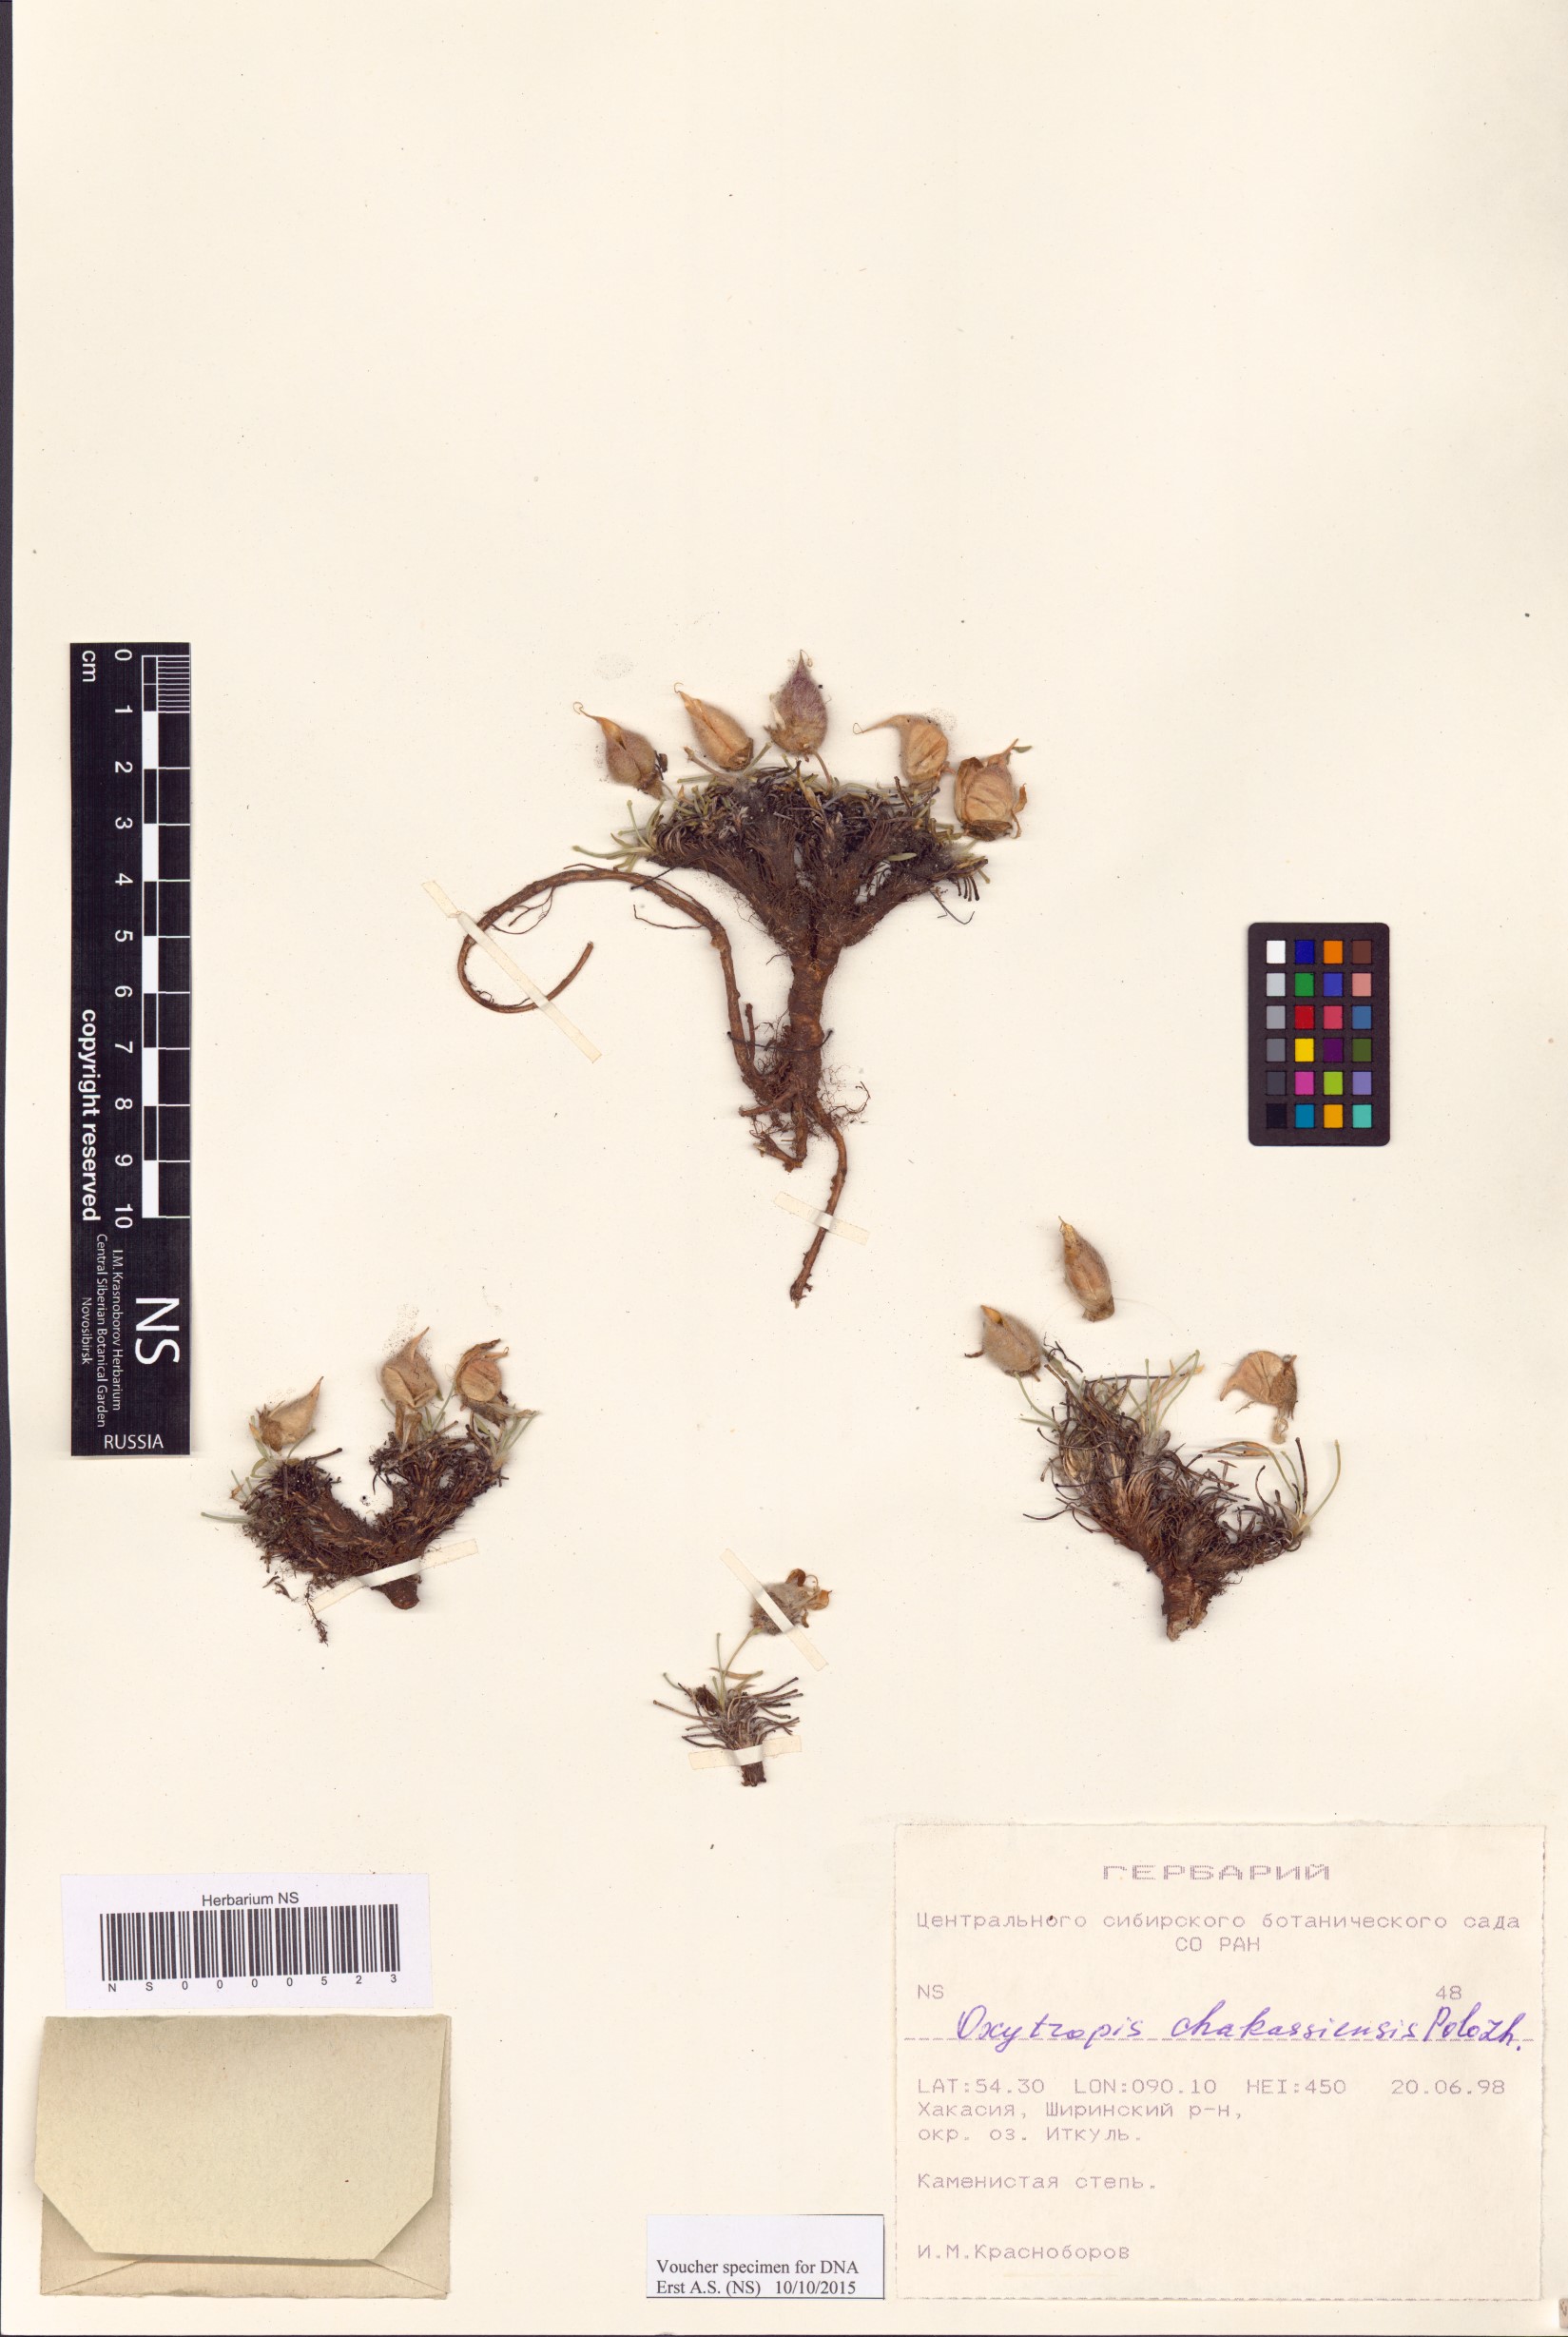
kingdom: Plantae
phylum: Tracheophyta
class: Magnoliopsida
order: Fabales
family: Fabaceae
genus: Oxytropis
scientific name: Oxytropis chakassiensis
